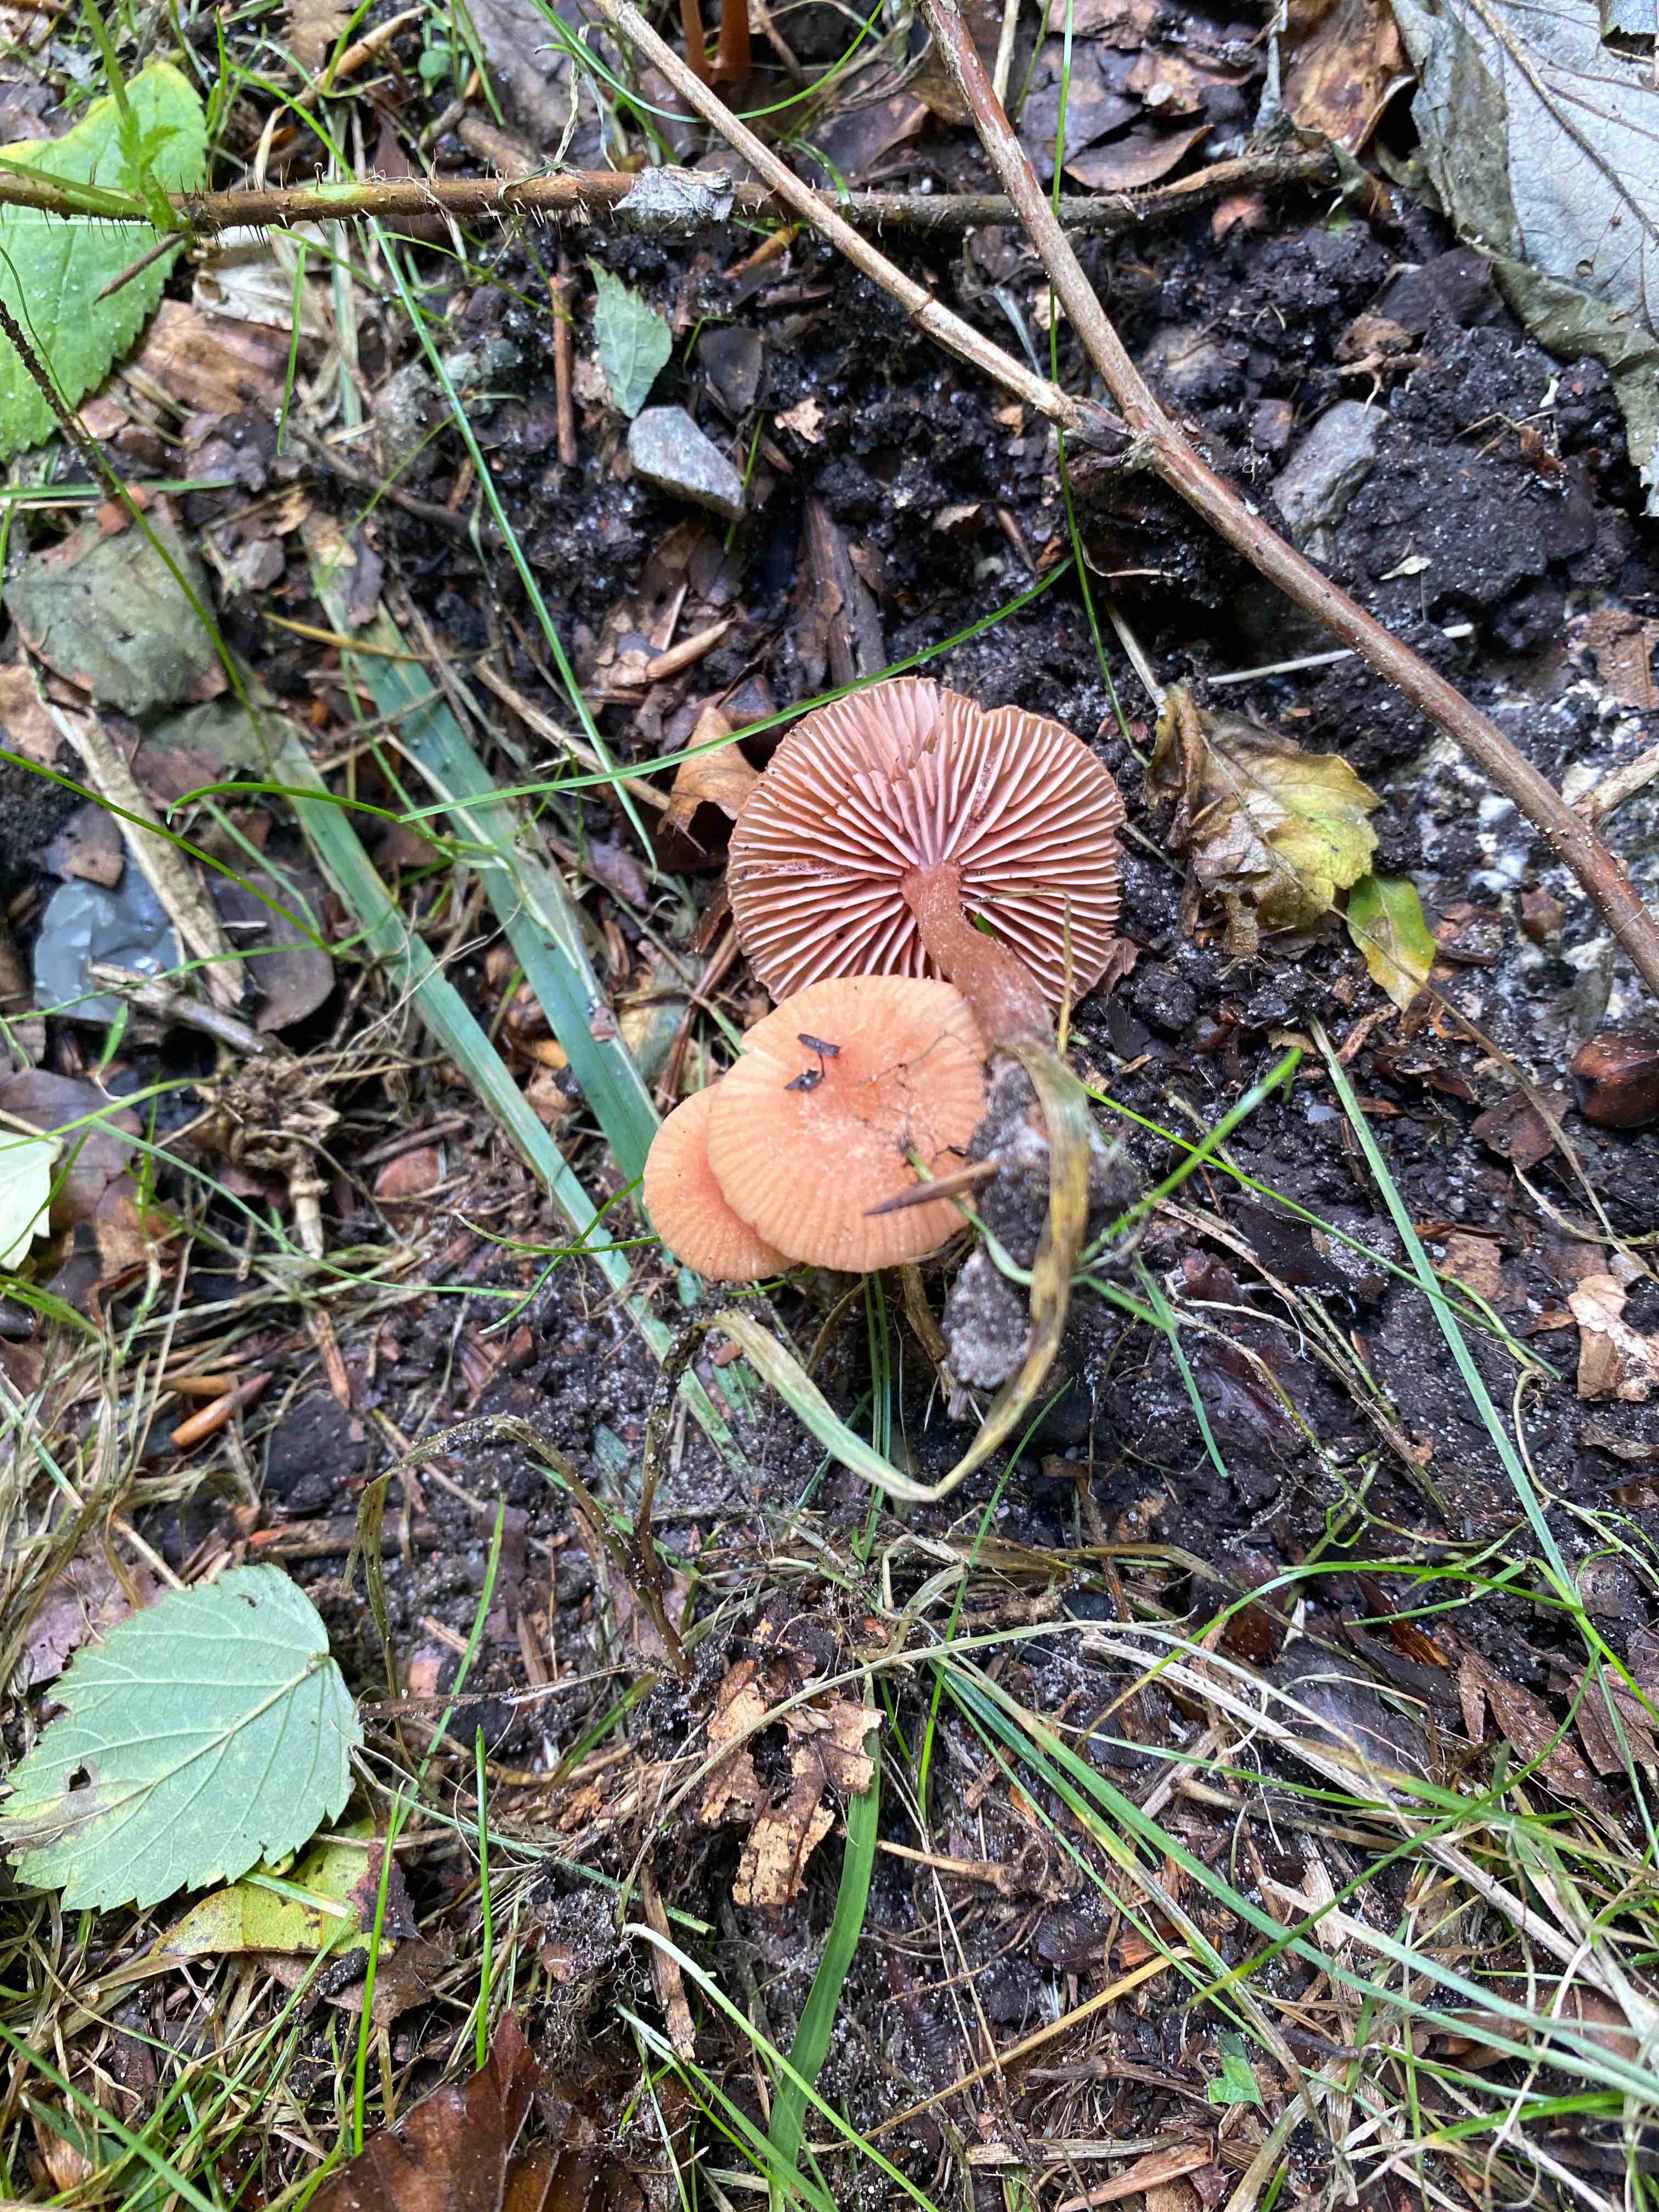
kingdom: Fungi
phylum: Basidiomycota
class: Agaricomycetes
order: Agaricales
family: Hydnangiaceae
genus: Laccaria
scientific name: Laccaria laccata
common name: rød ametysthat
